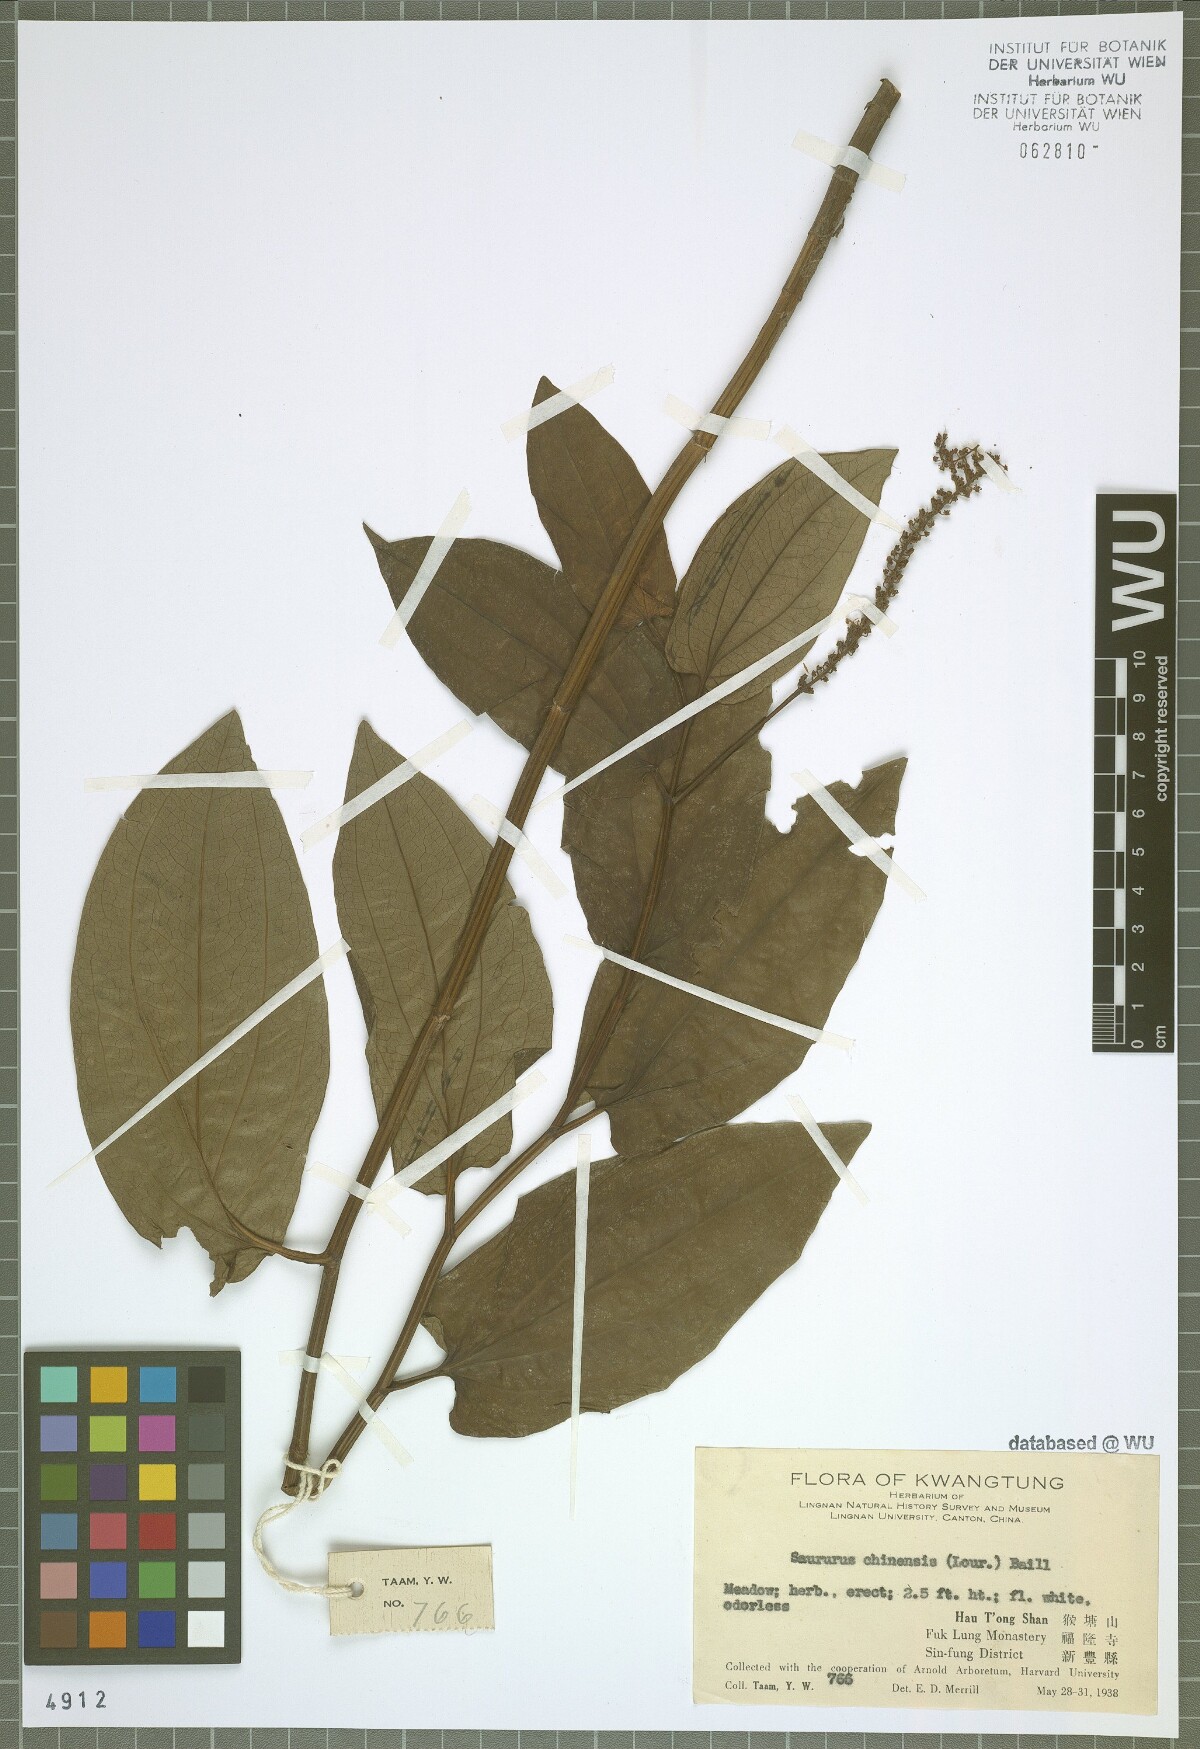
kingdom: Plantae
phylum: Tracheophyta
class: Magnoliopsida
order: Piperales
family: Saururaceae
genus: Saururus
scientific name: Saururus chinensis
